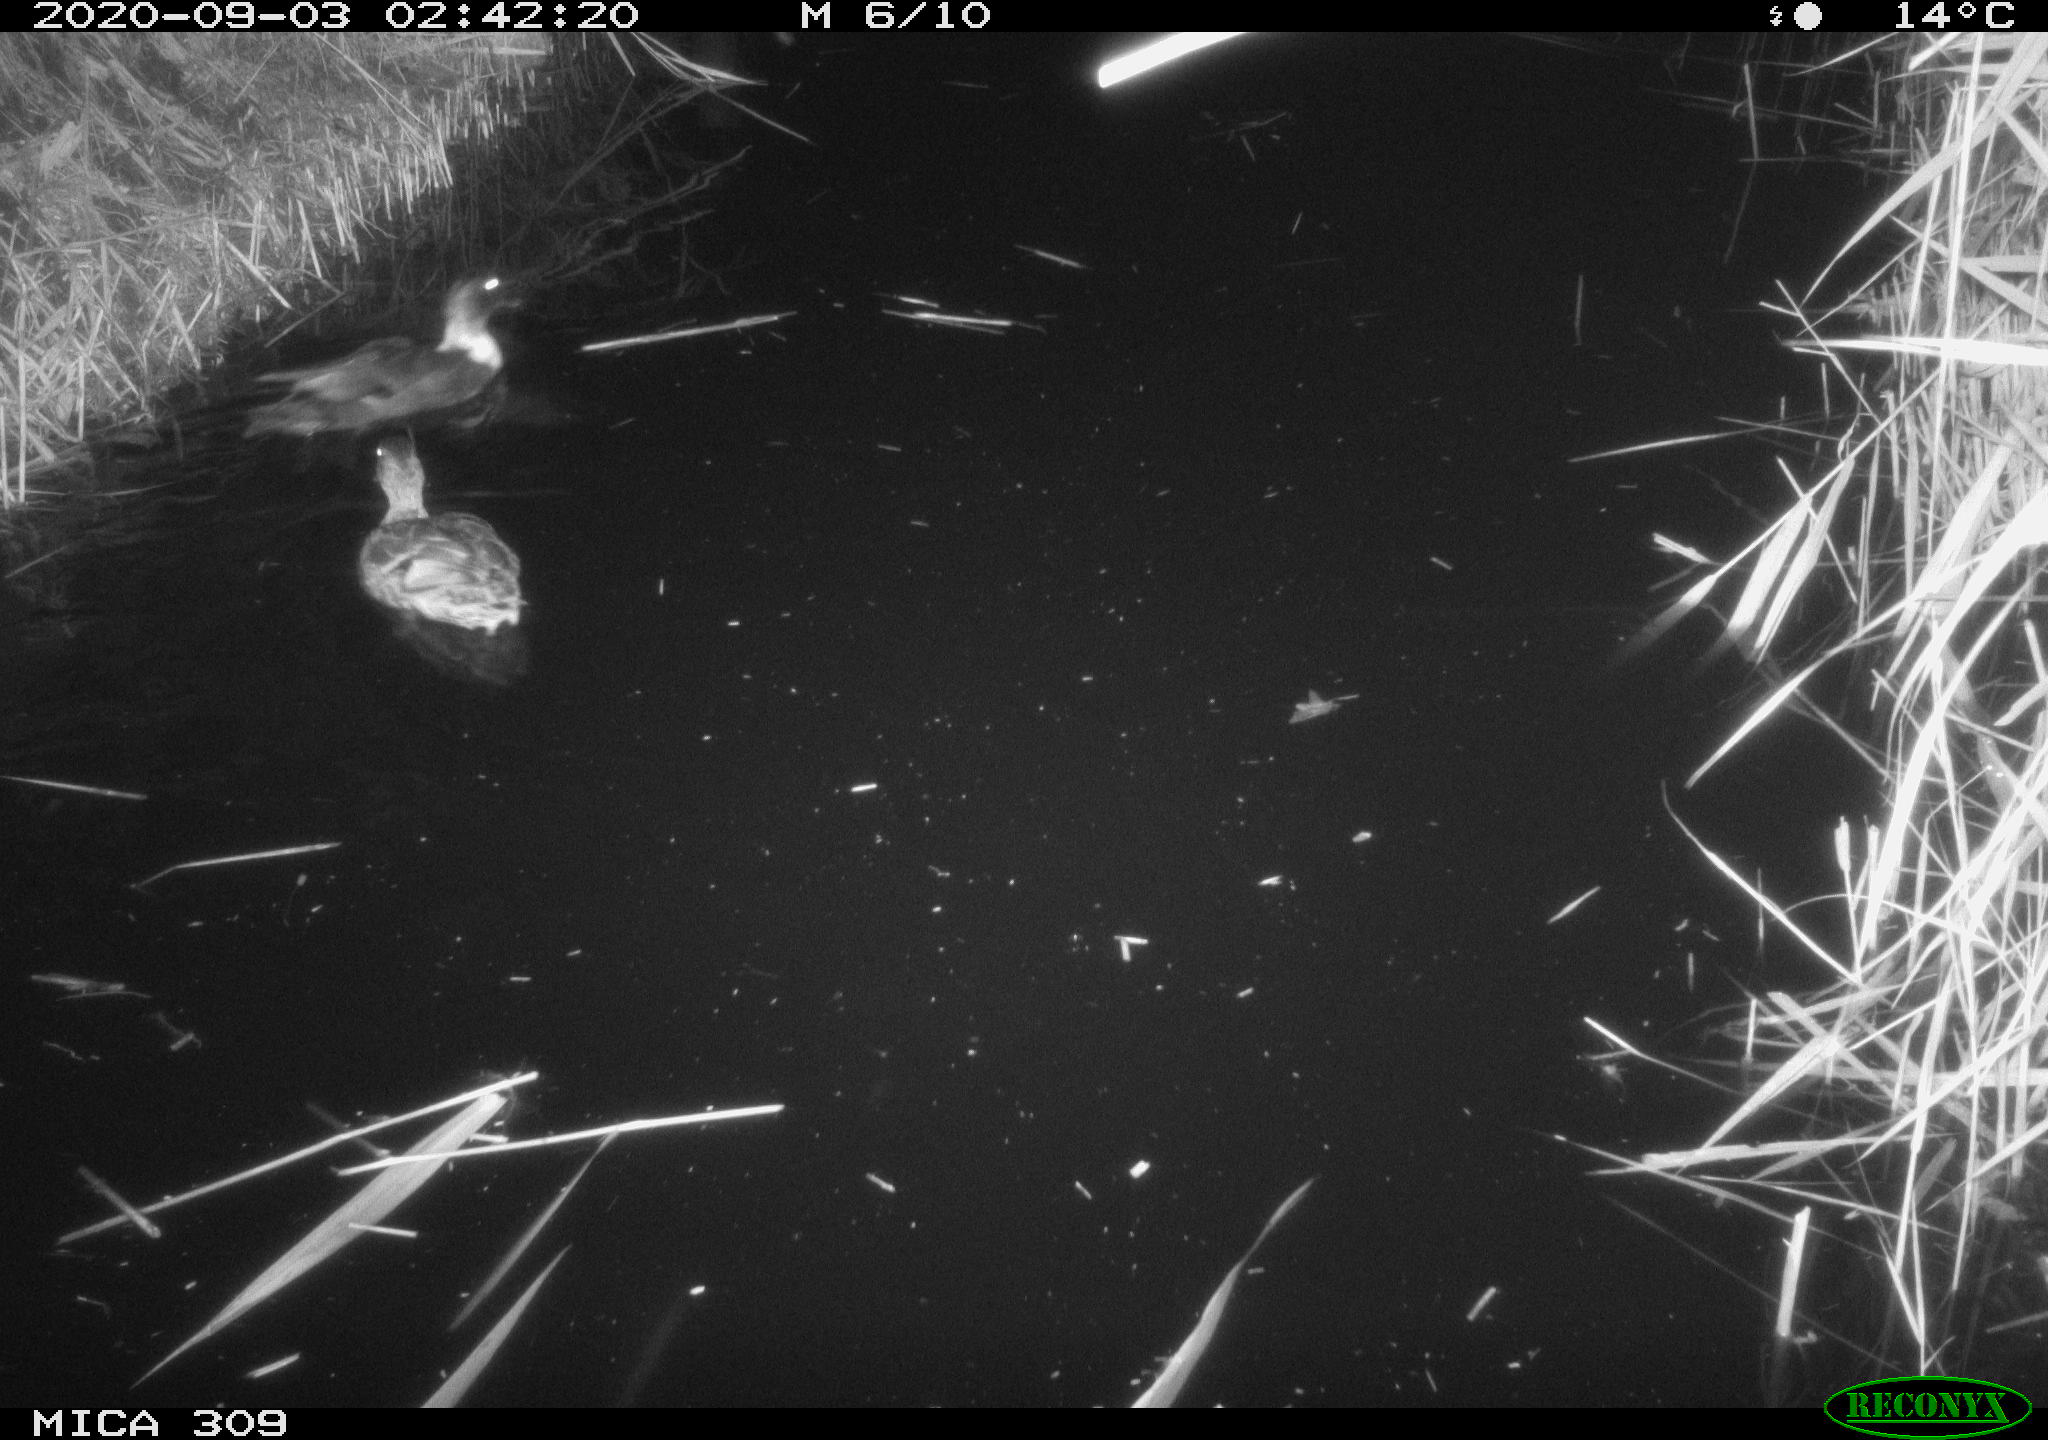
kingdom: Animalia
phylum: Chordata
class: Aves
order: Anseriformes
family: Anatidae
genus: Anas
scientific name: Anas platyrhynchos
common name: Mallard
